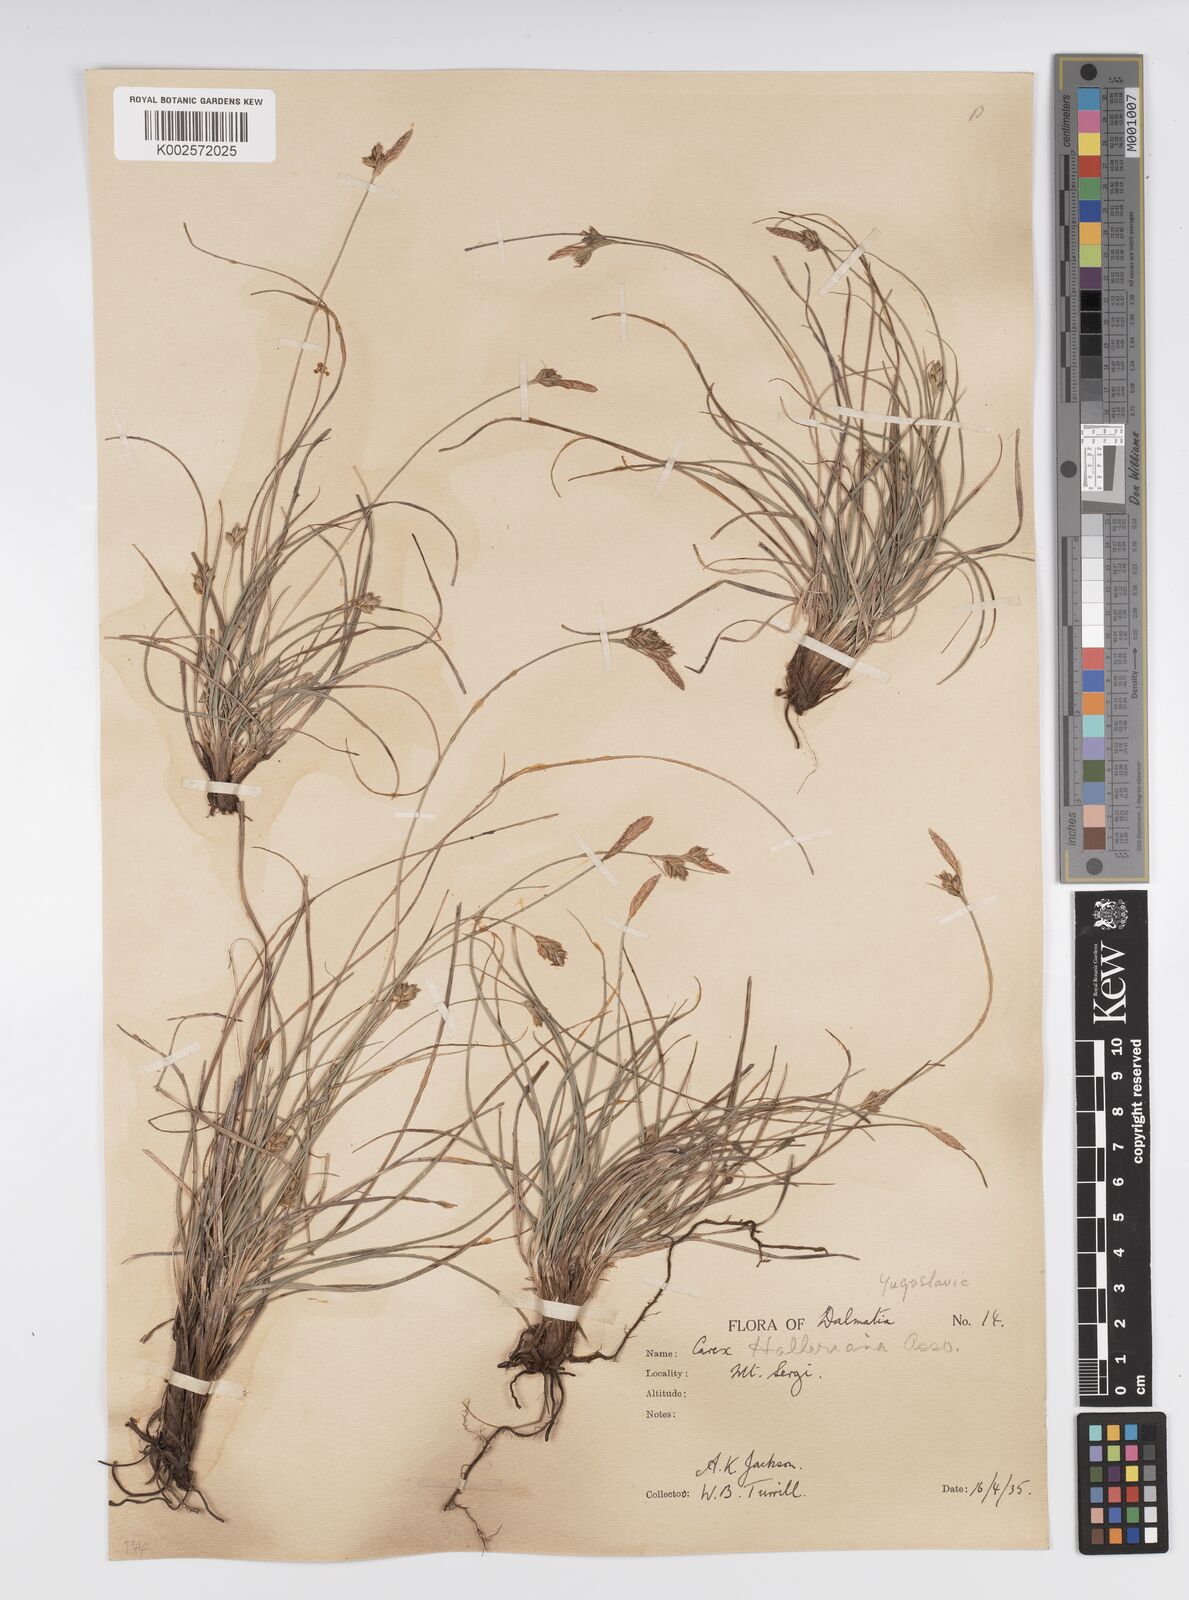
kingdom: Plantae
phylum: Tracheophyta
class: Liliopsida
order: Poales
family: Cyperaceae
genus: Carex
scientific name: Carex halleriana
